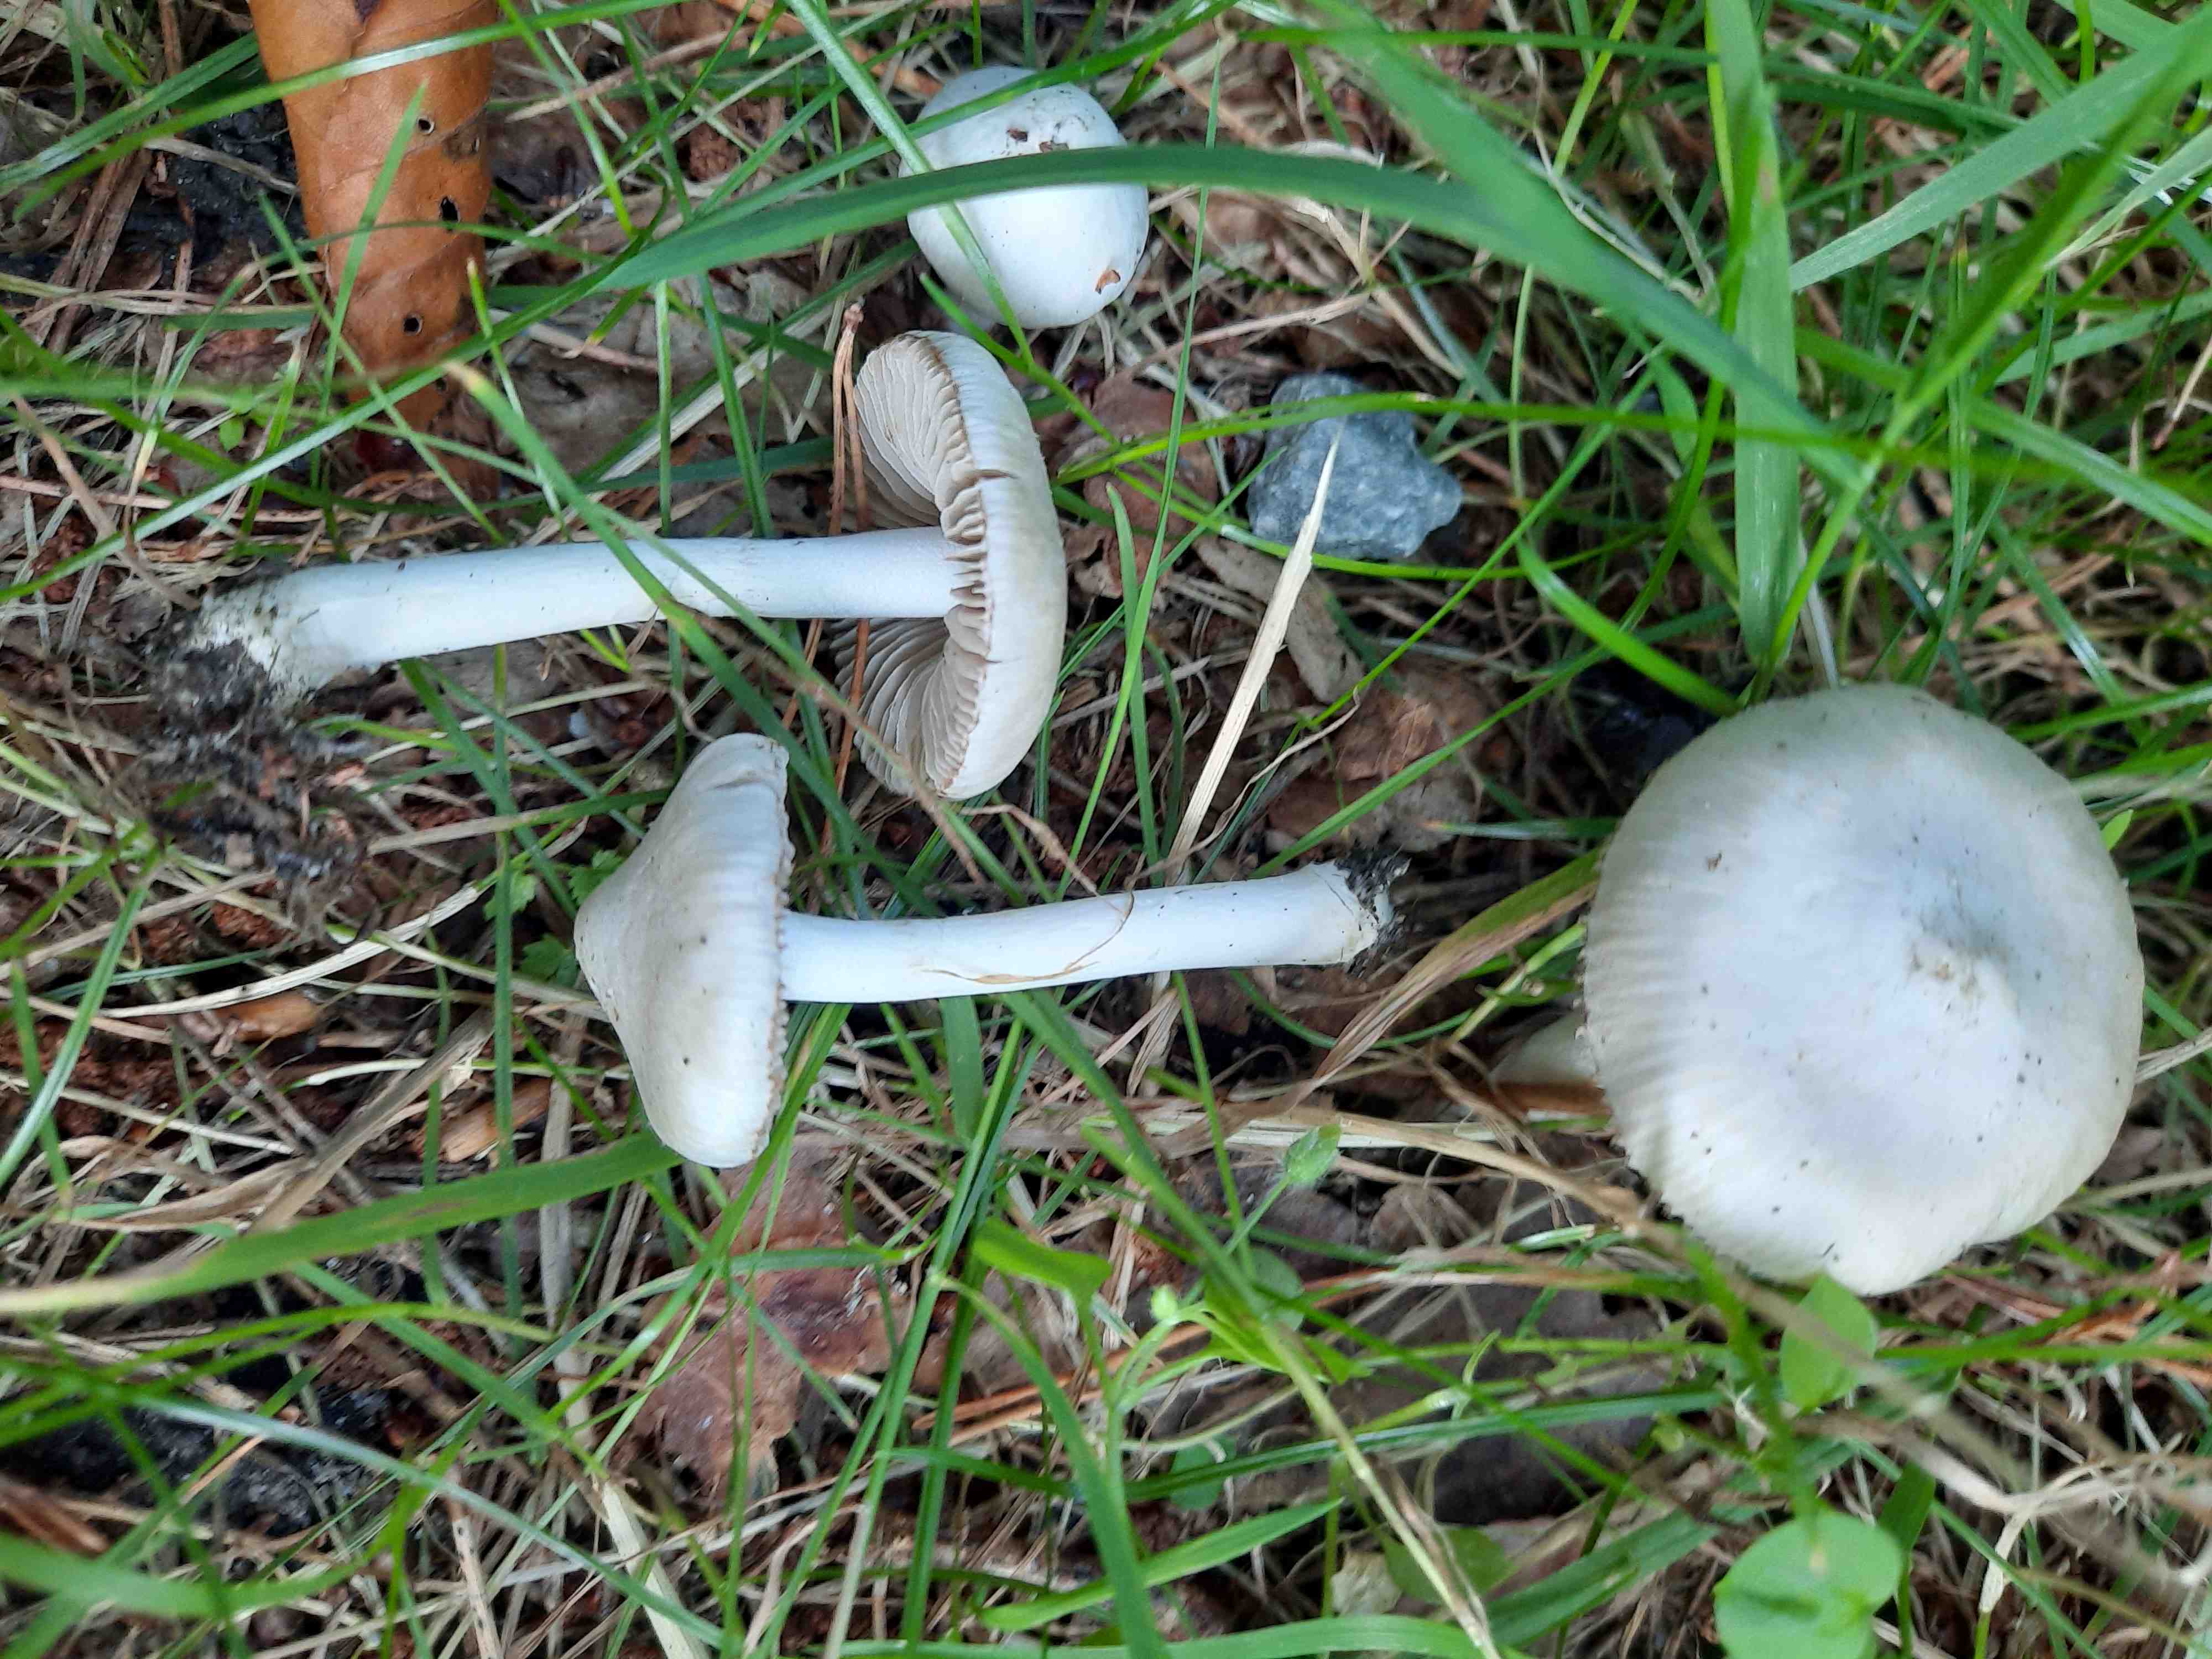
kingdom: Fungi
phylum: Basidiomycota
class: Agaricomycetes
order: Agaricales
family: Inocybaceae
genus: Inocybe
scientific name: Inocybe
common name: almindelig trævlhat
